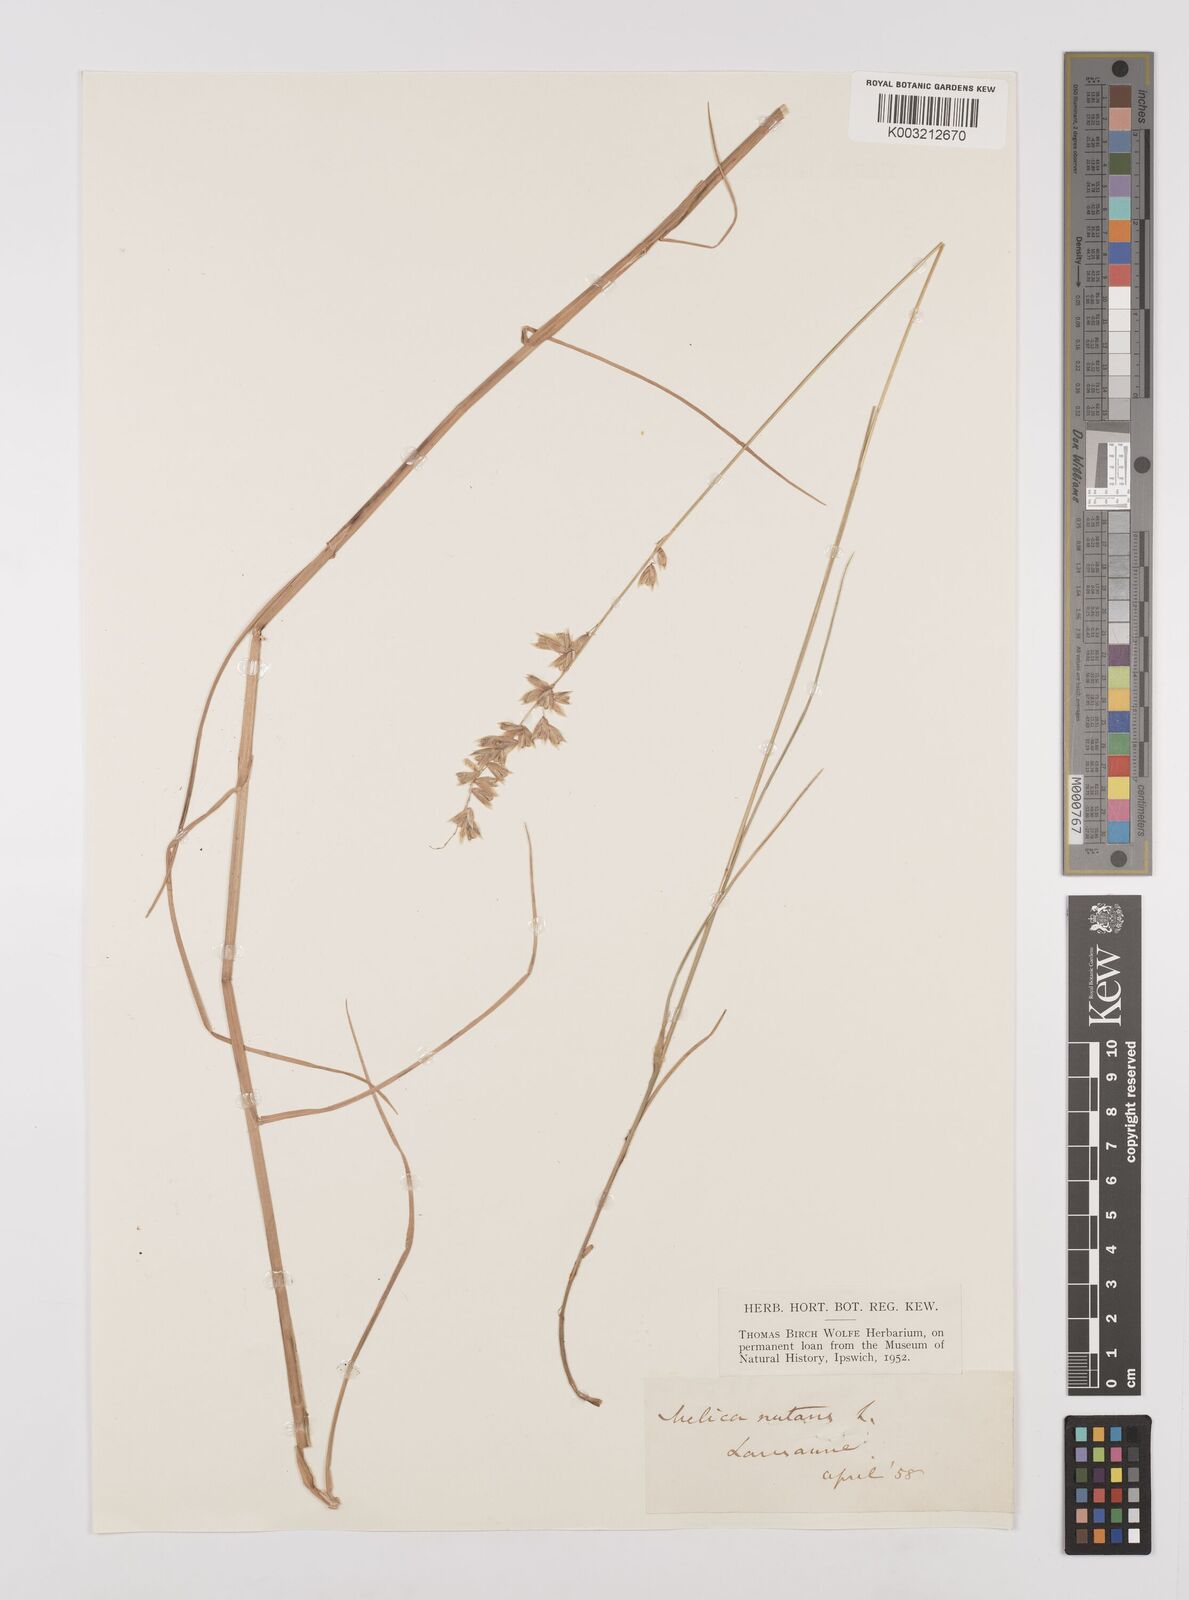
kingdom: Plantae
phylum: Tracheophyta
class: Liliopsida
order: Poales
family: Poaceae
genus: Melica
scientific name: Melica
